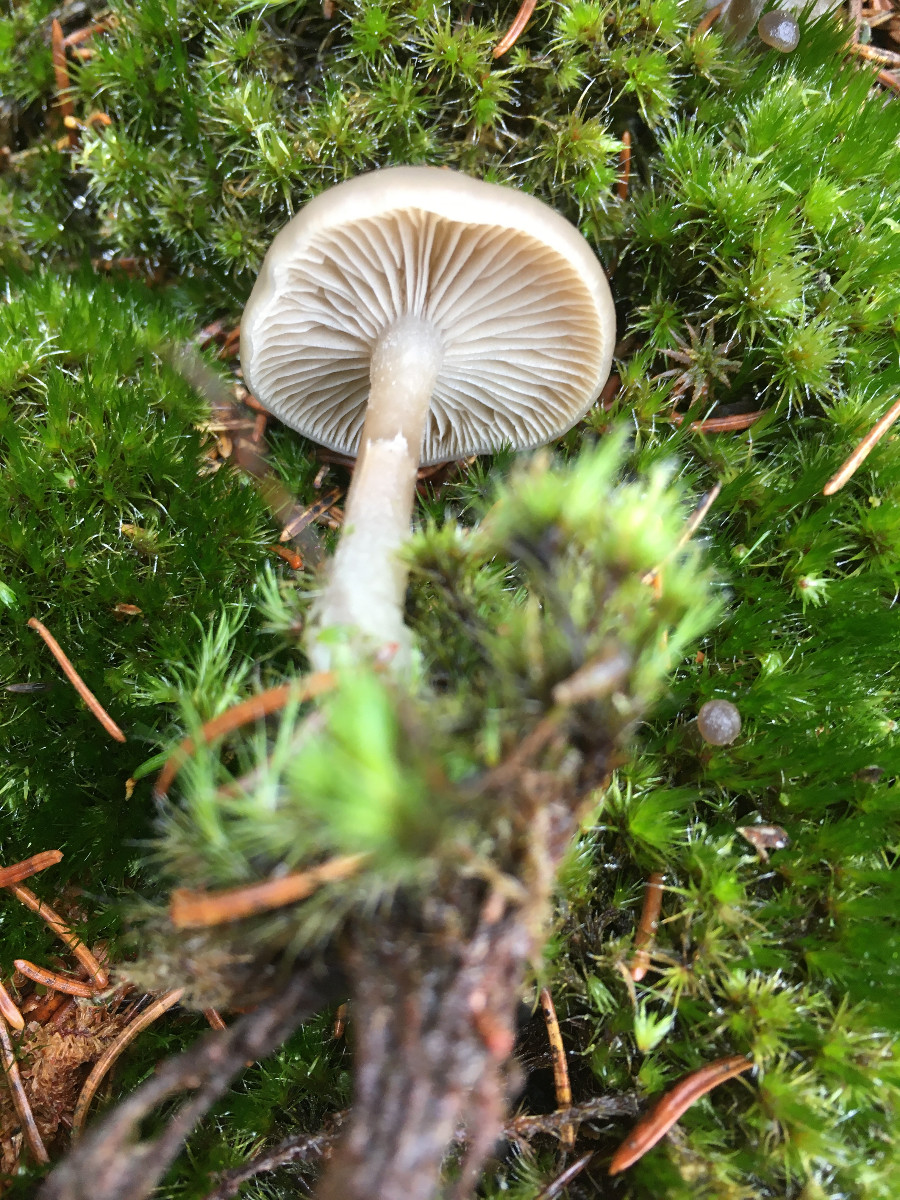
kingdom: Fungi
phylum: Basidiomycota
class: Agaricomycetes
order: Agaricales
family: Tricholomataceae
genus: Clitocybe
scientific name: Clitocybe
